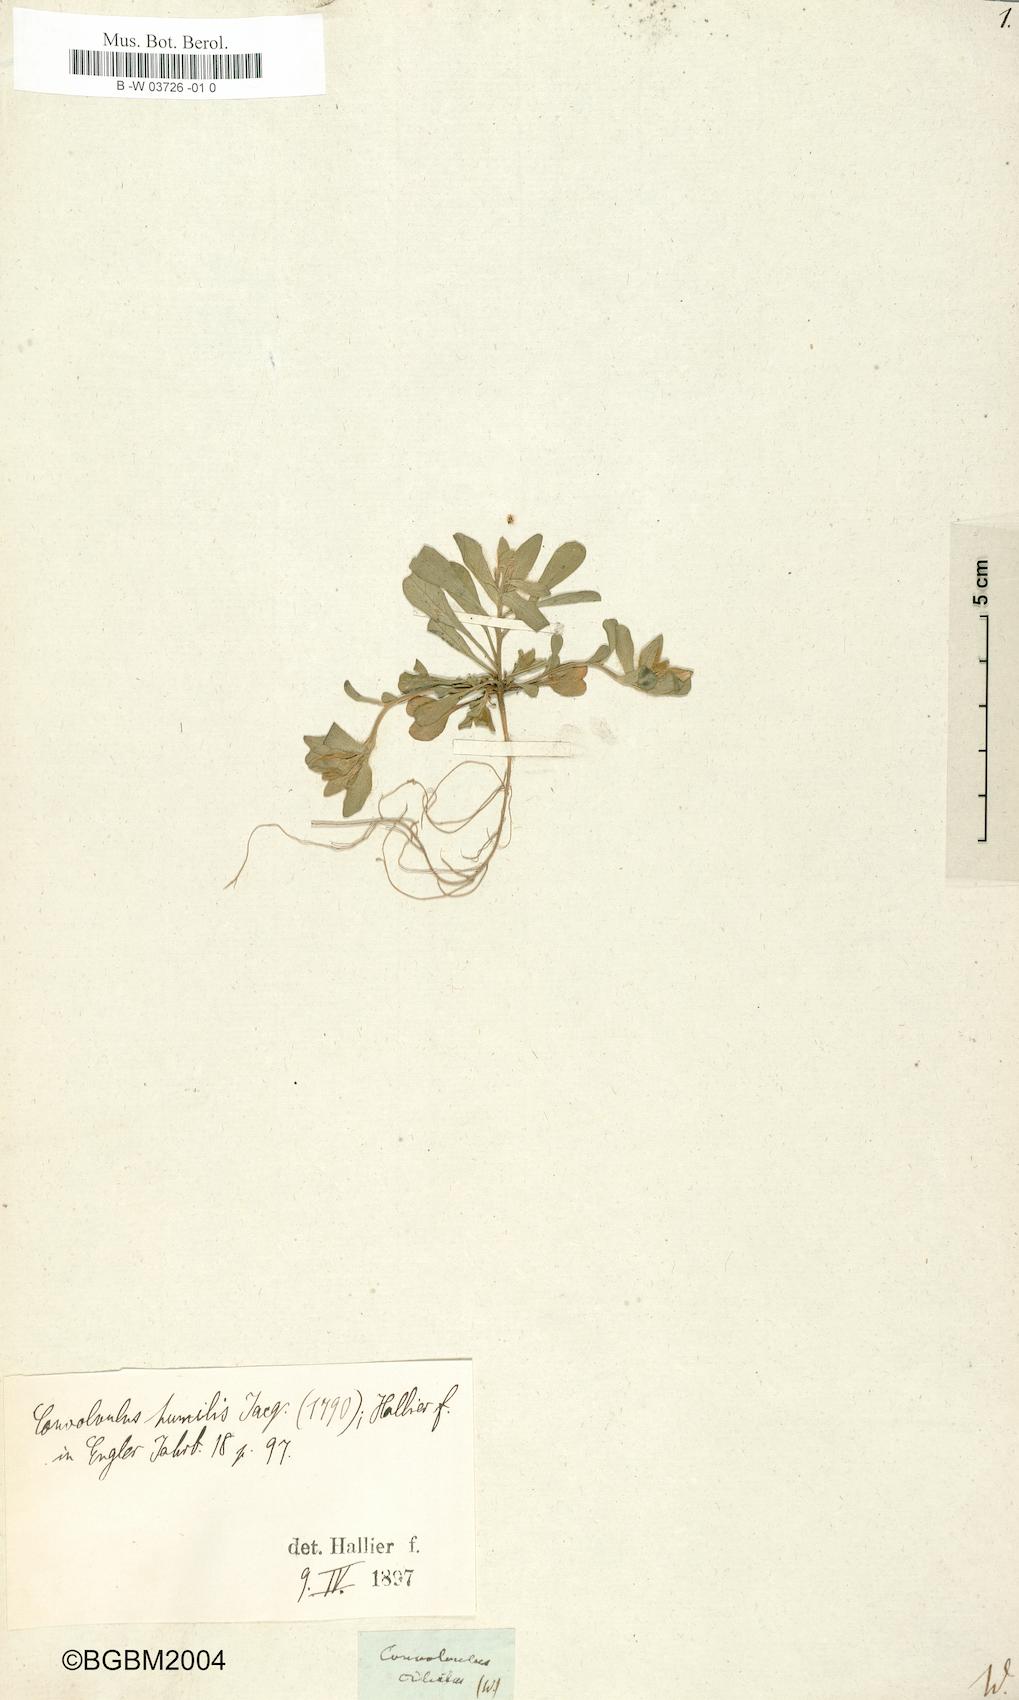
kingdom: Plantae
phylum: Tracheophyta
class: Magnoliopsida
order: Solanales
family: Convolvulaceae
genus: Convolvulus
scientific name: Convolvulus ciliatus
